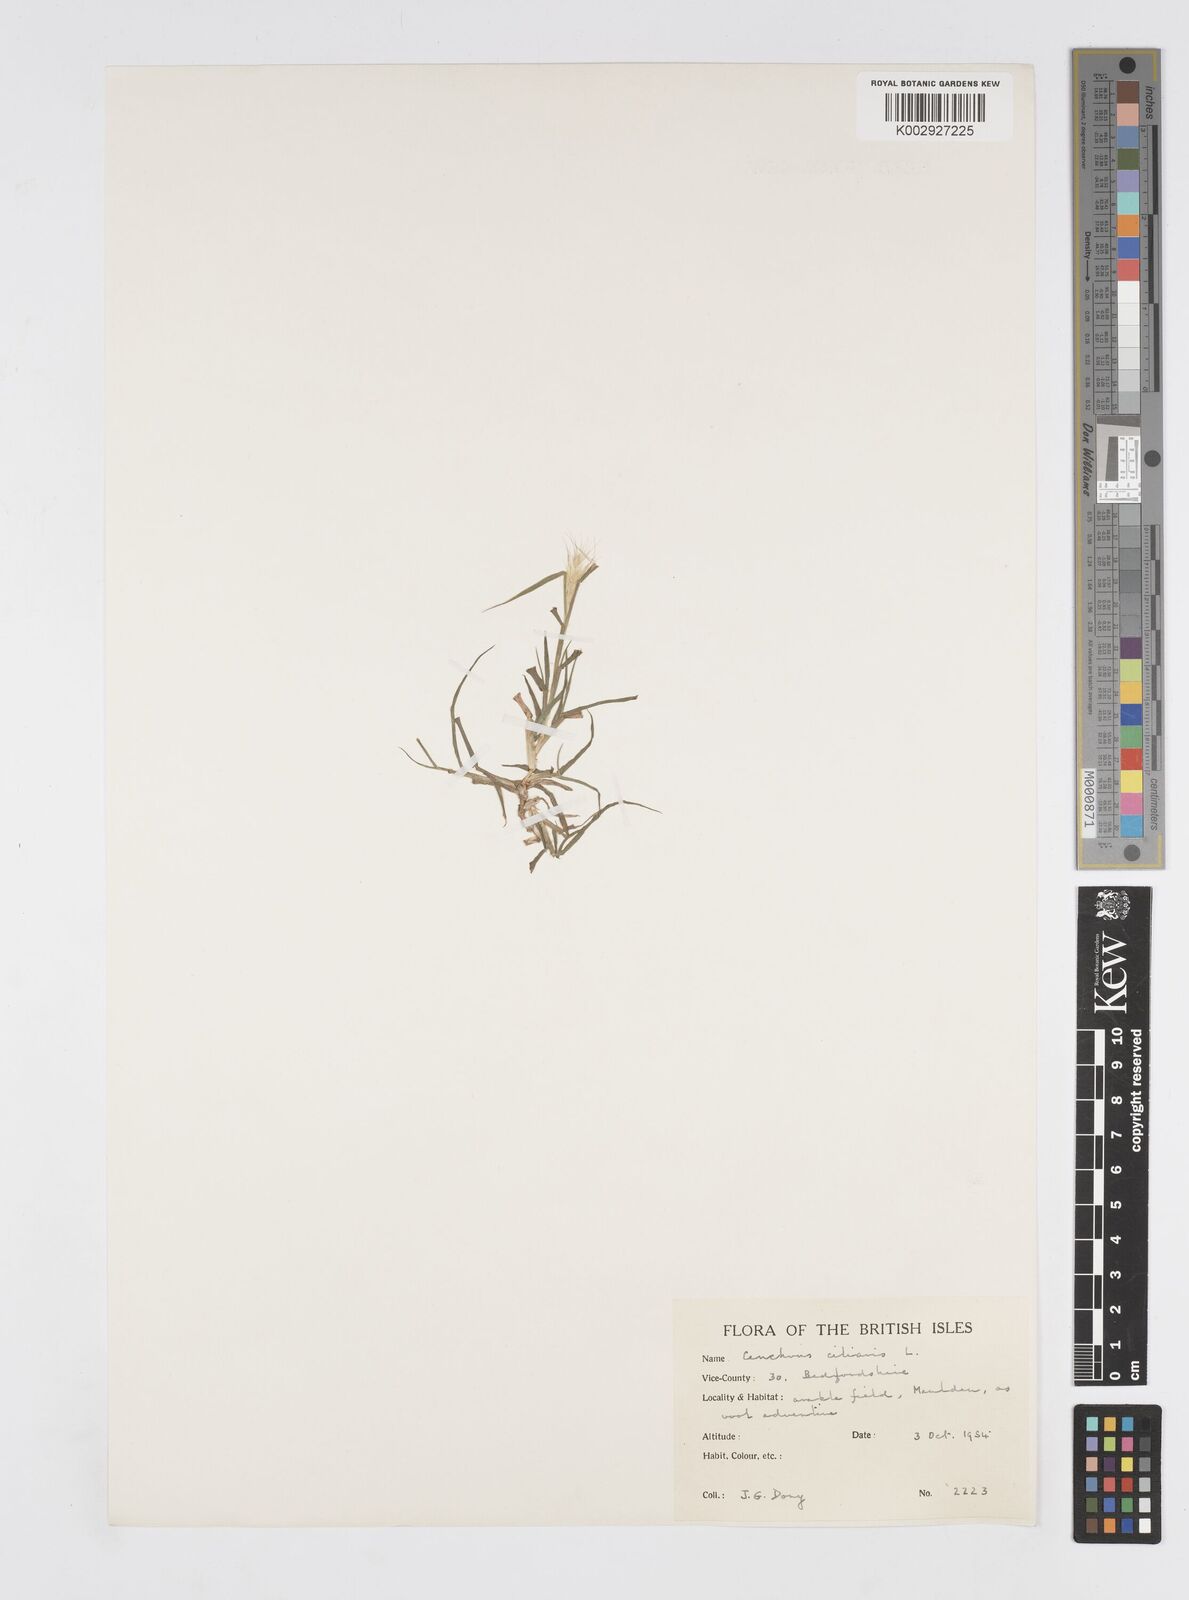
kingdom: Plantae
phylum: Tracheophyta
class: Liliopsida
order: Poales
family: Poaceae
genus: Cenchrus
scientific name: Cenchrus ciliaris
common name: Buffelgrass
